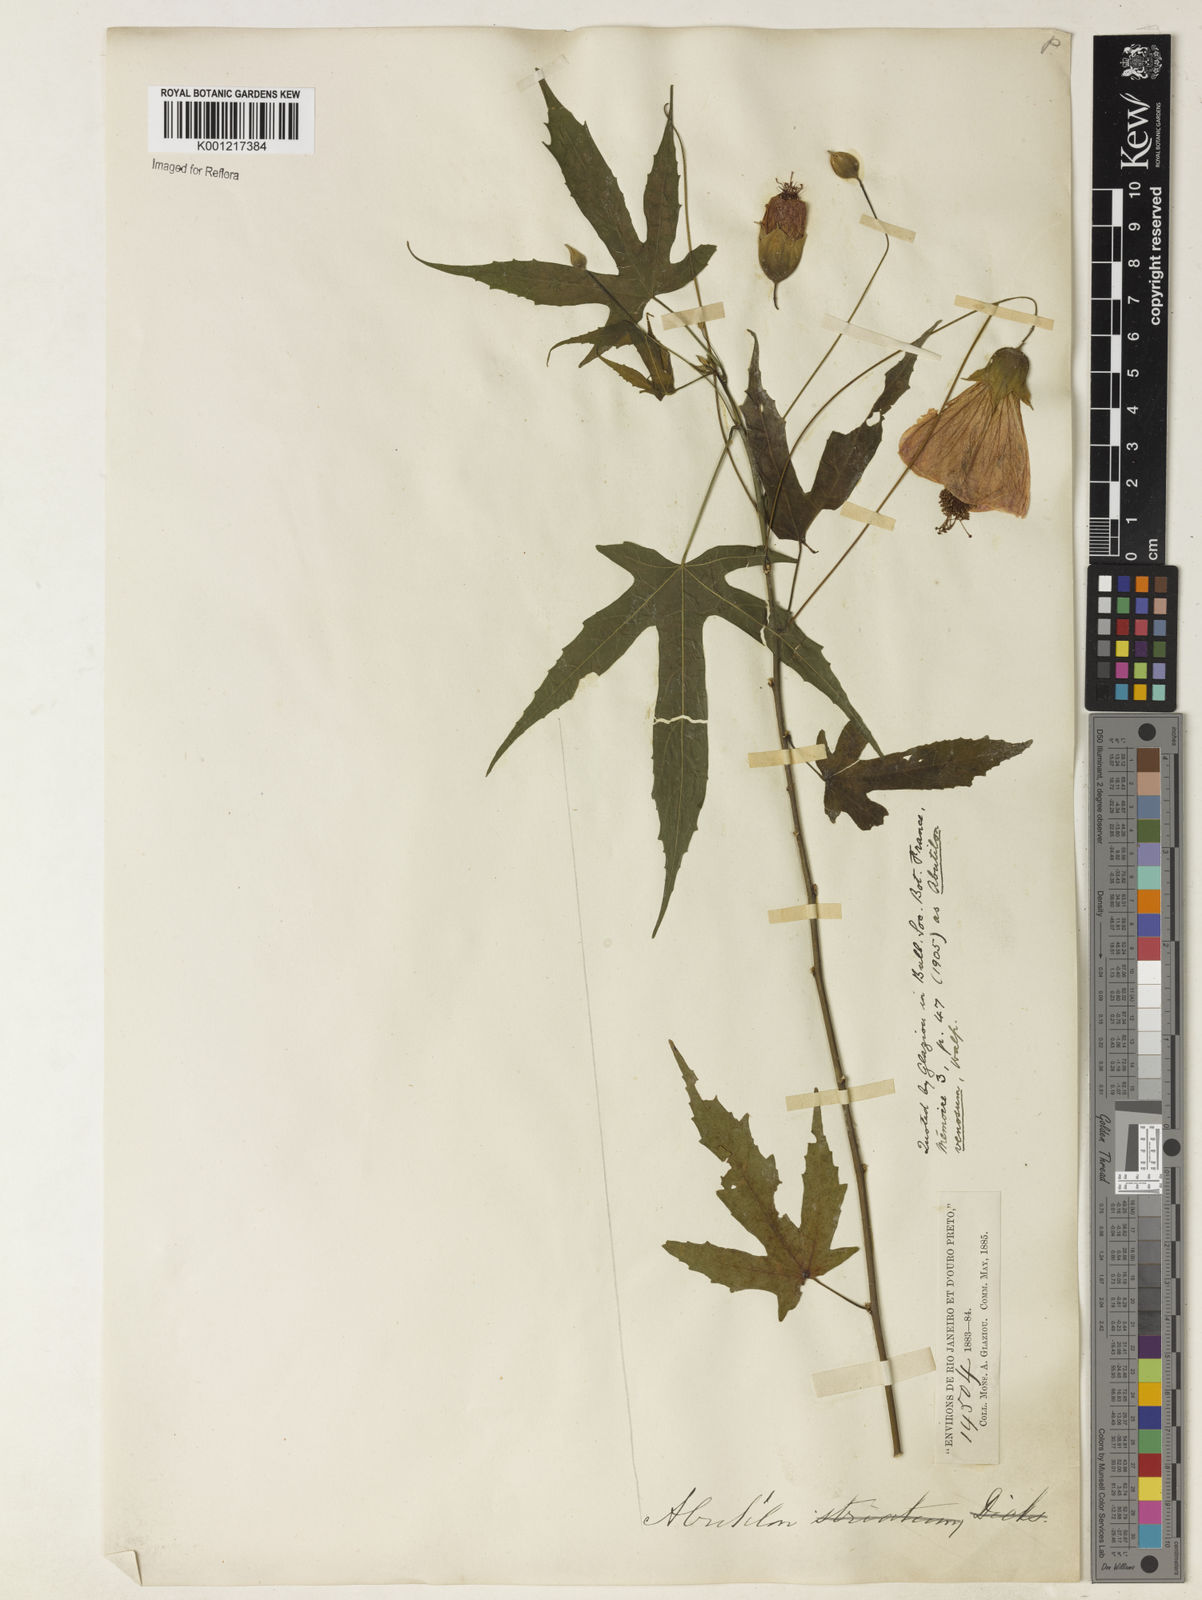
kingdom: Plantae
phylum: Tracheophyta
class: Magnoliopsida
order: Malvales
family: Malvaceae
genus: Abutilon
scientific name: Abutilon
